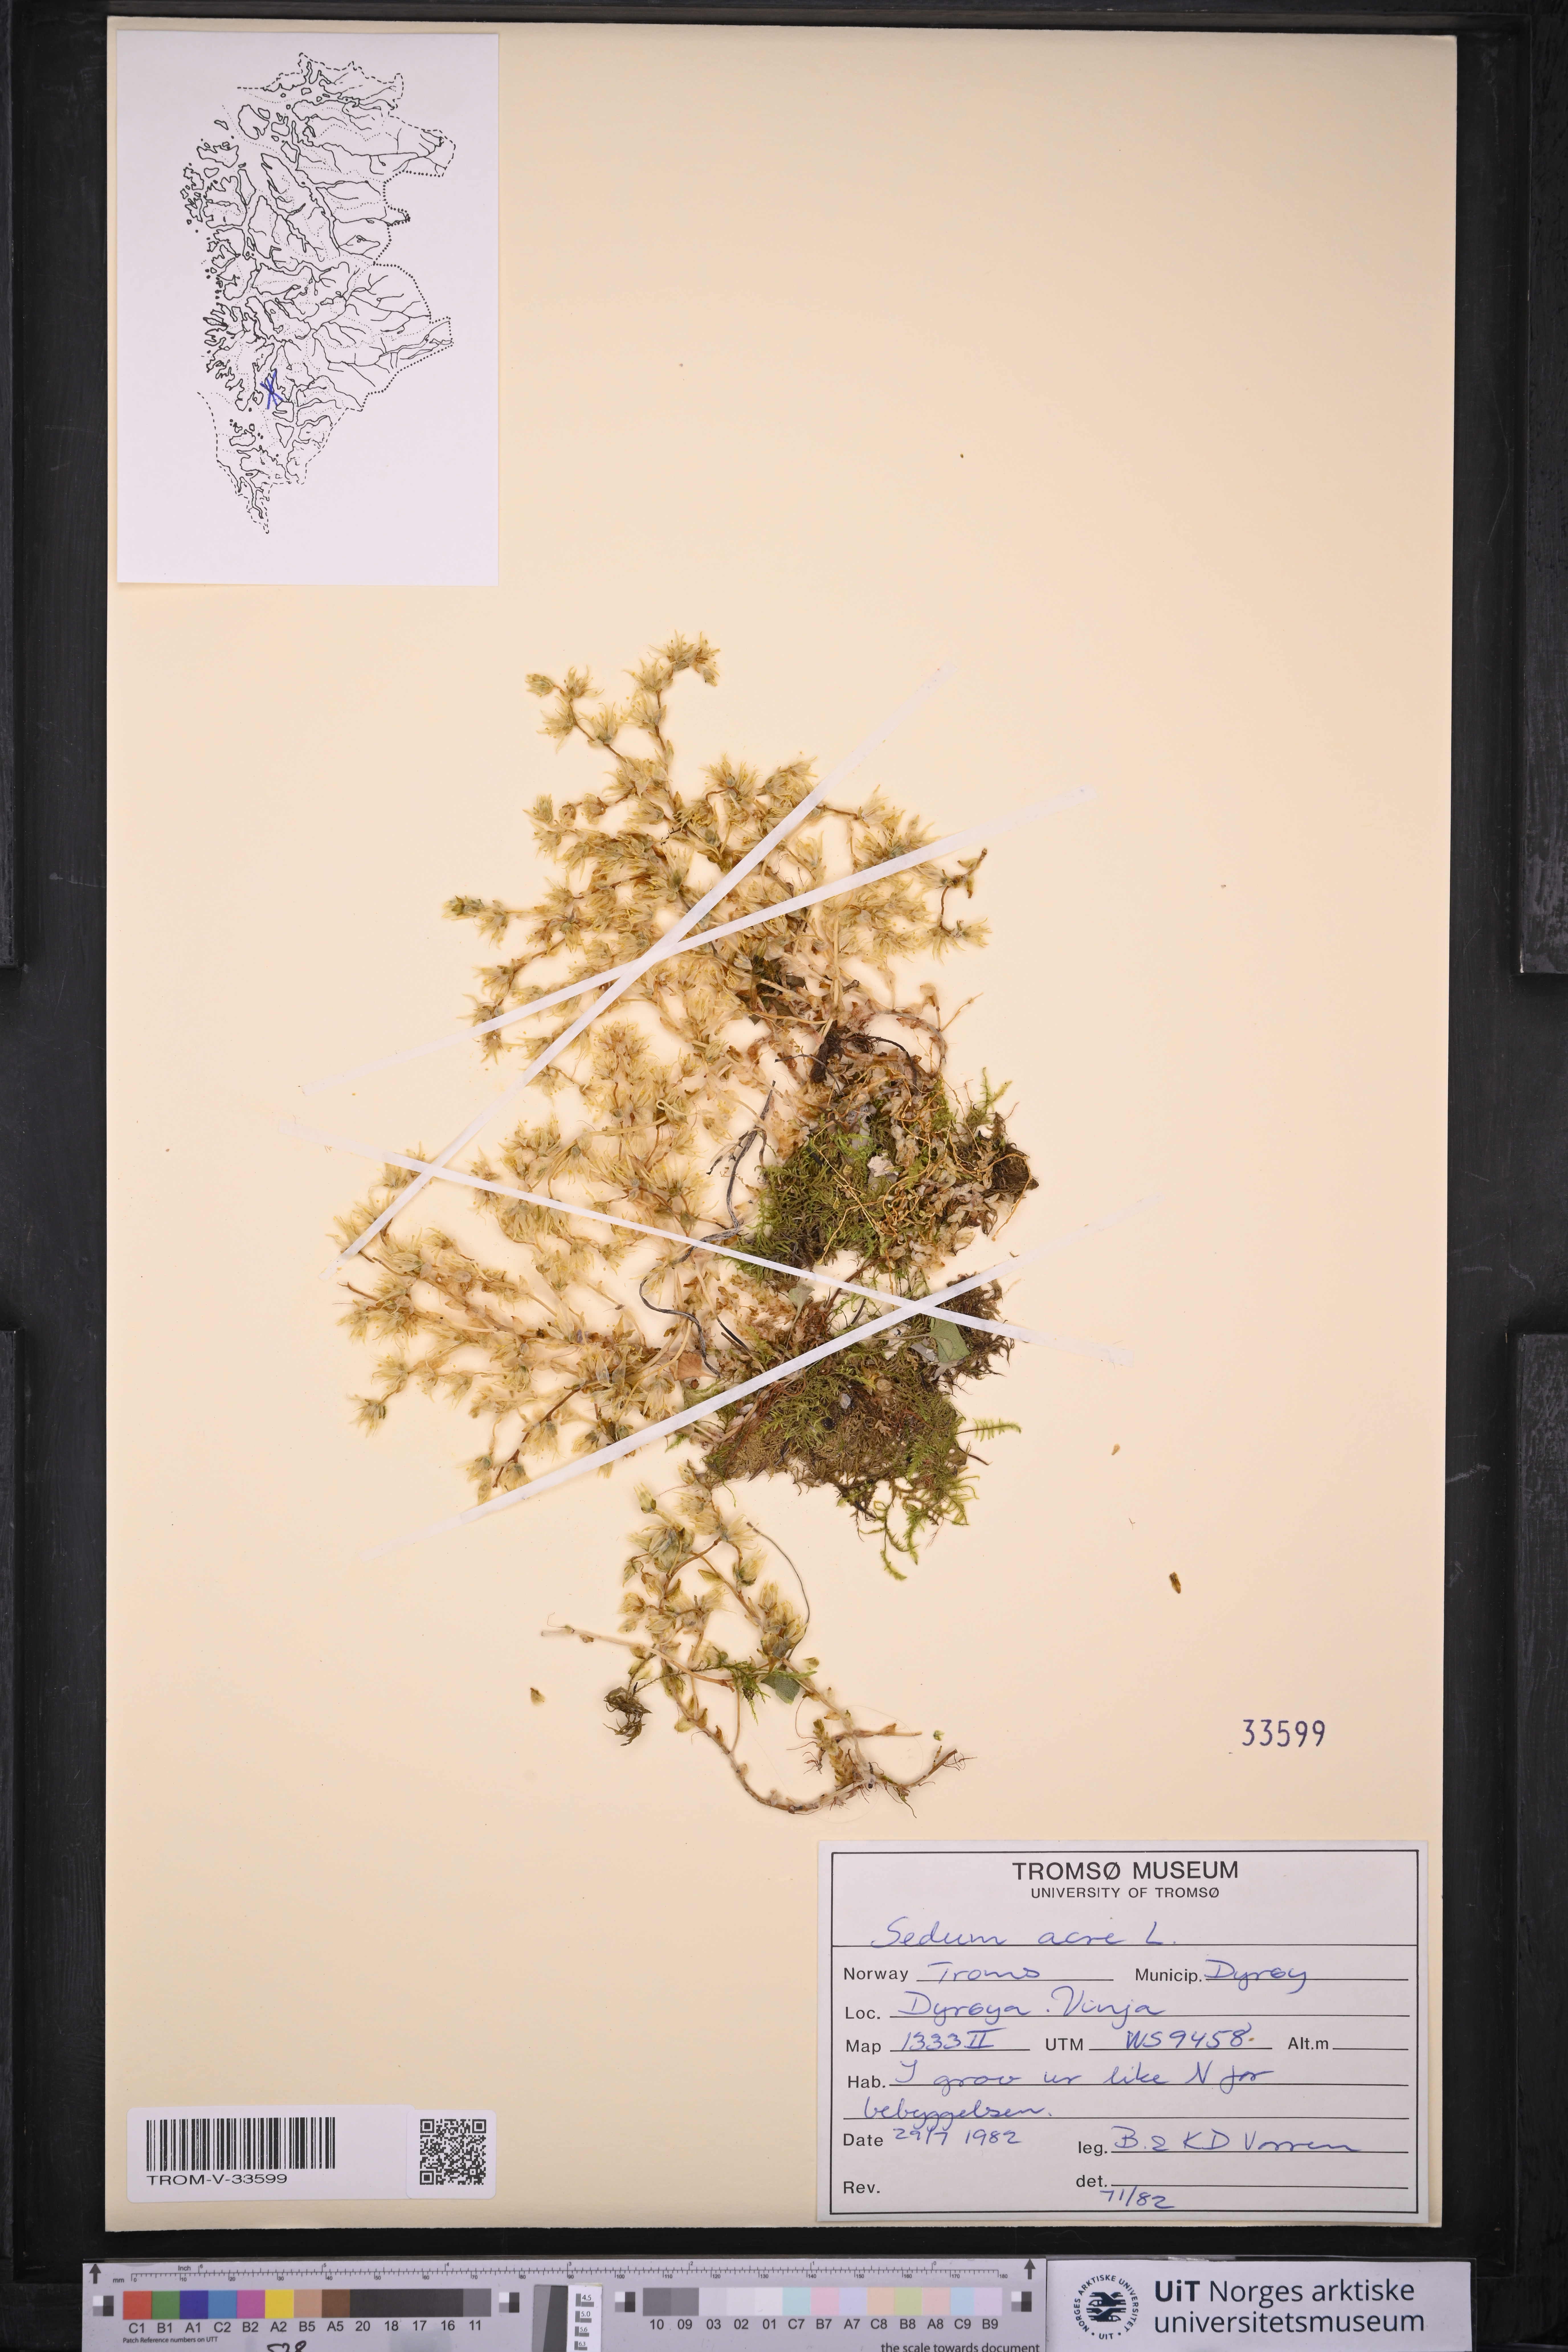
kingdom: Plantae
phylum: Tracheophyta
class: Magnoliopsida
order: Saxifragales
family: Crassulaceae
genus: Sedum
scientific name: Sedum acre
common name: Biting stonecrop
